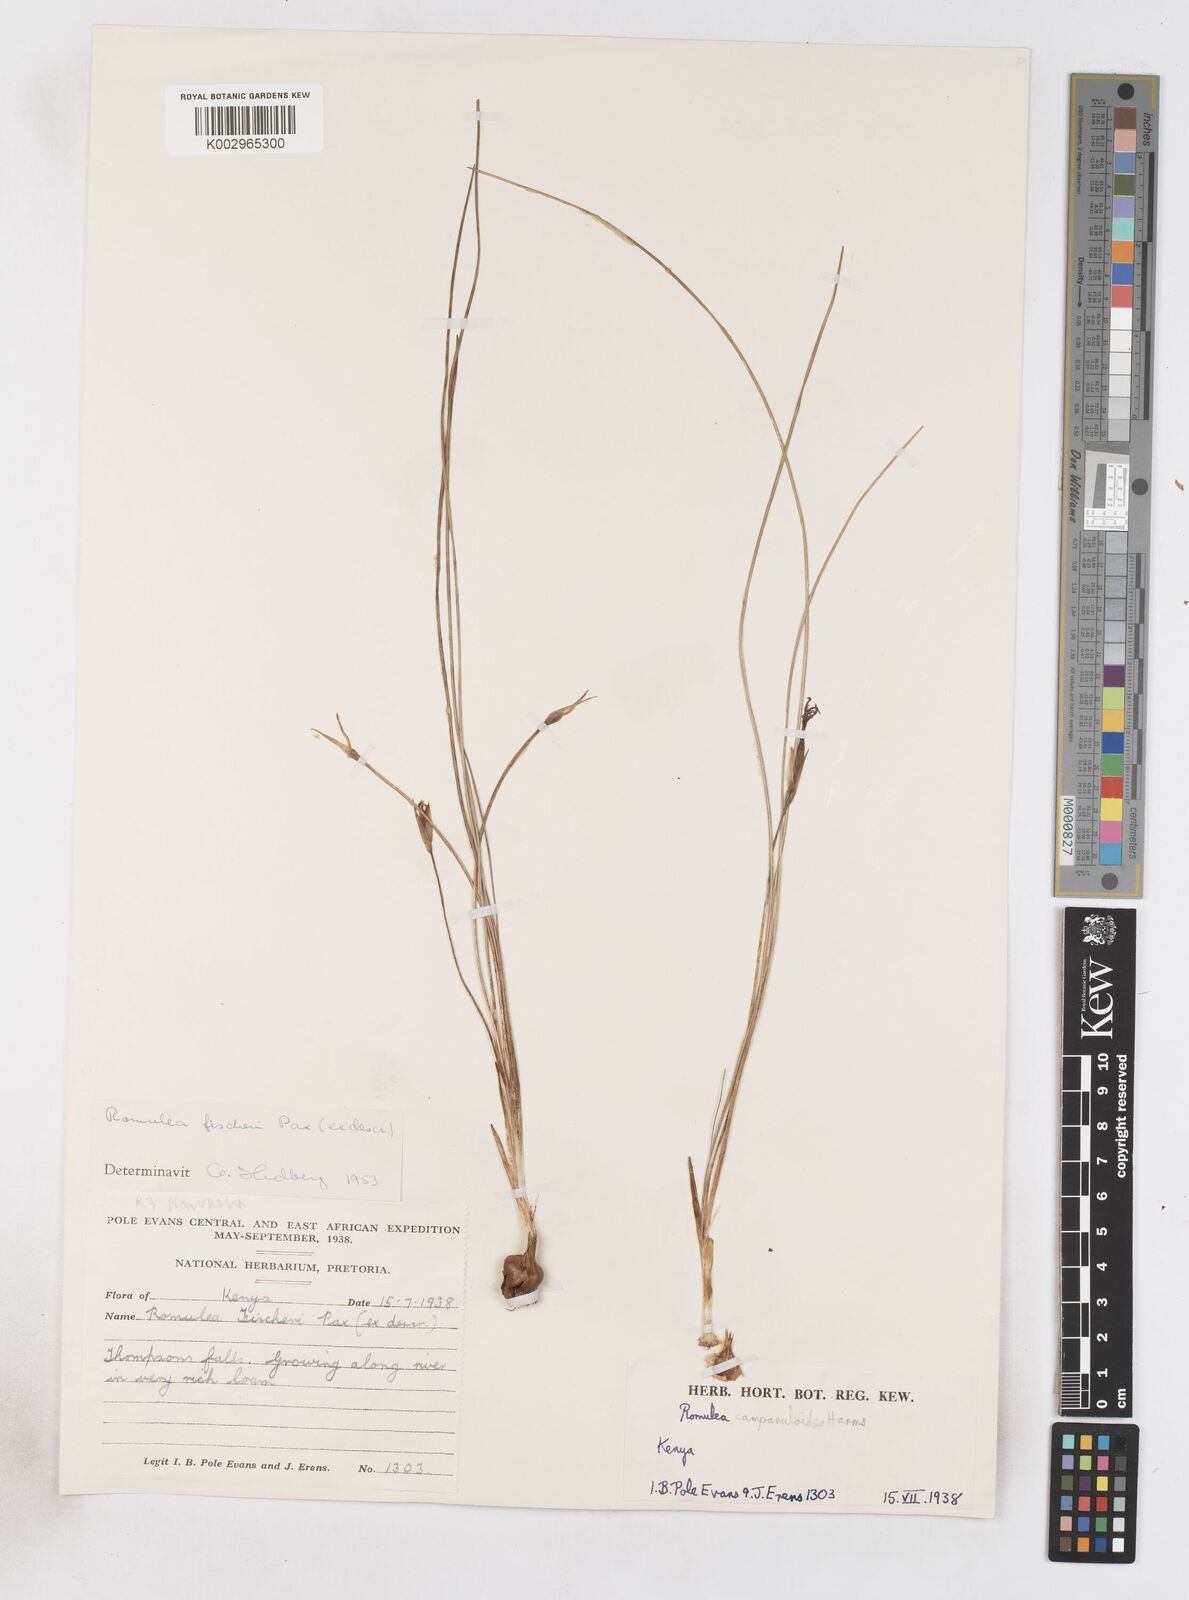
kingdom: Plantae
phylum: Tracheophyta
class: Liliopsida
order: Asparagales
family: Iridaceae
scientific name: Iridaceae
